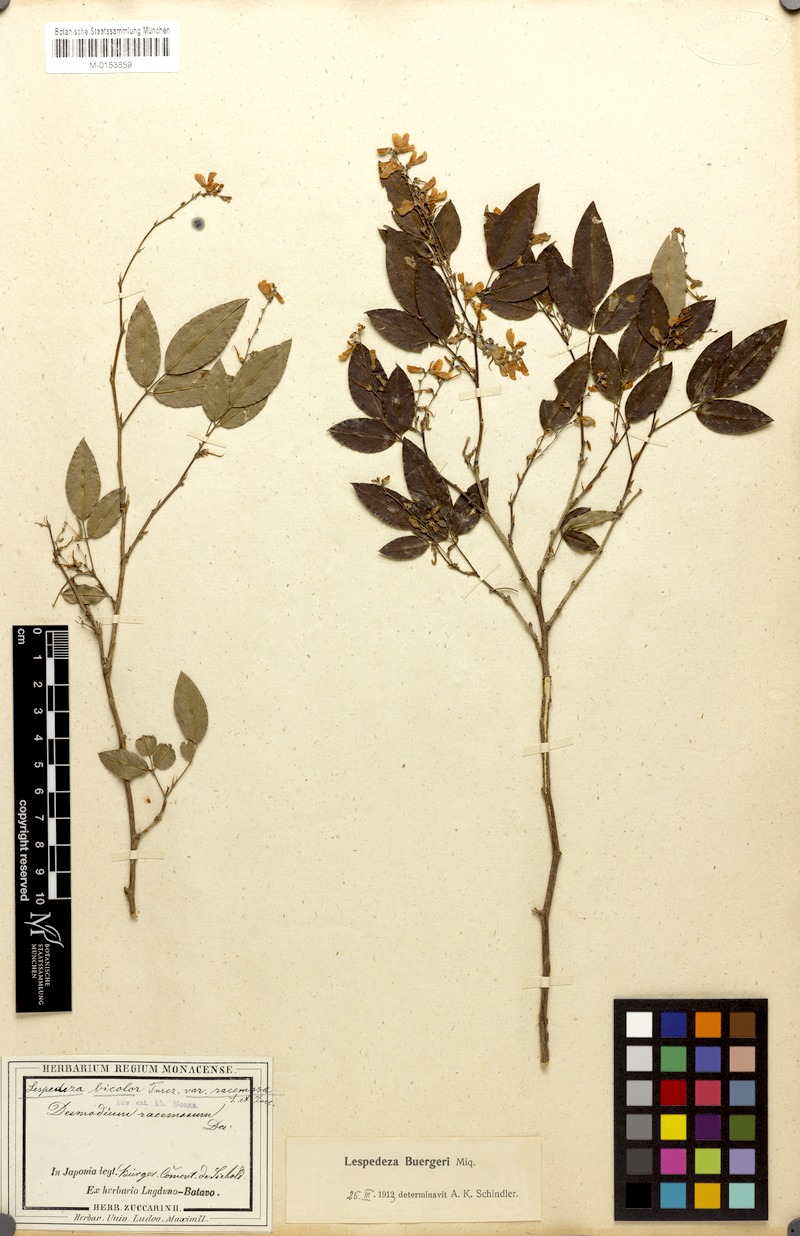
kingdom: Plantae
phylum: Tracheophyta
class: Magnoliopsida
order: Fabales
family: Fabaceae
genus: Lespedeza
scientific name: Lespedeza buergeri
